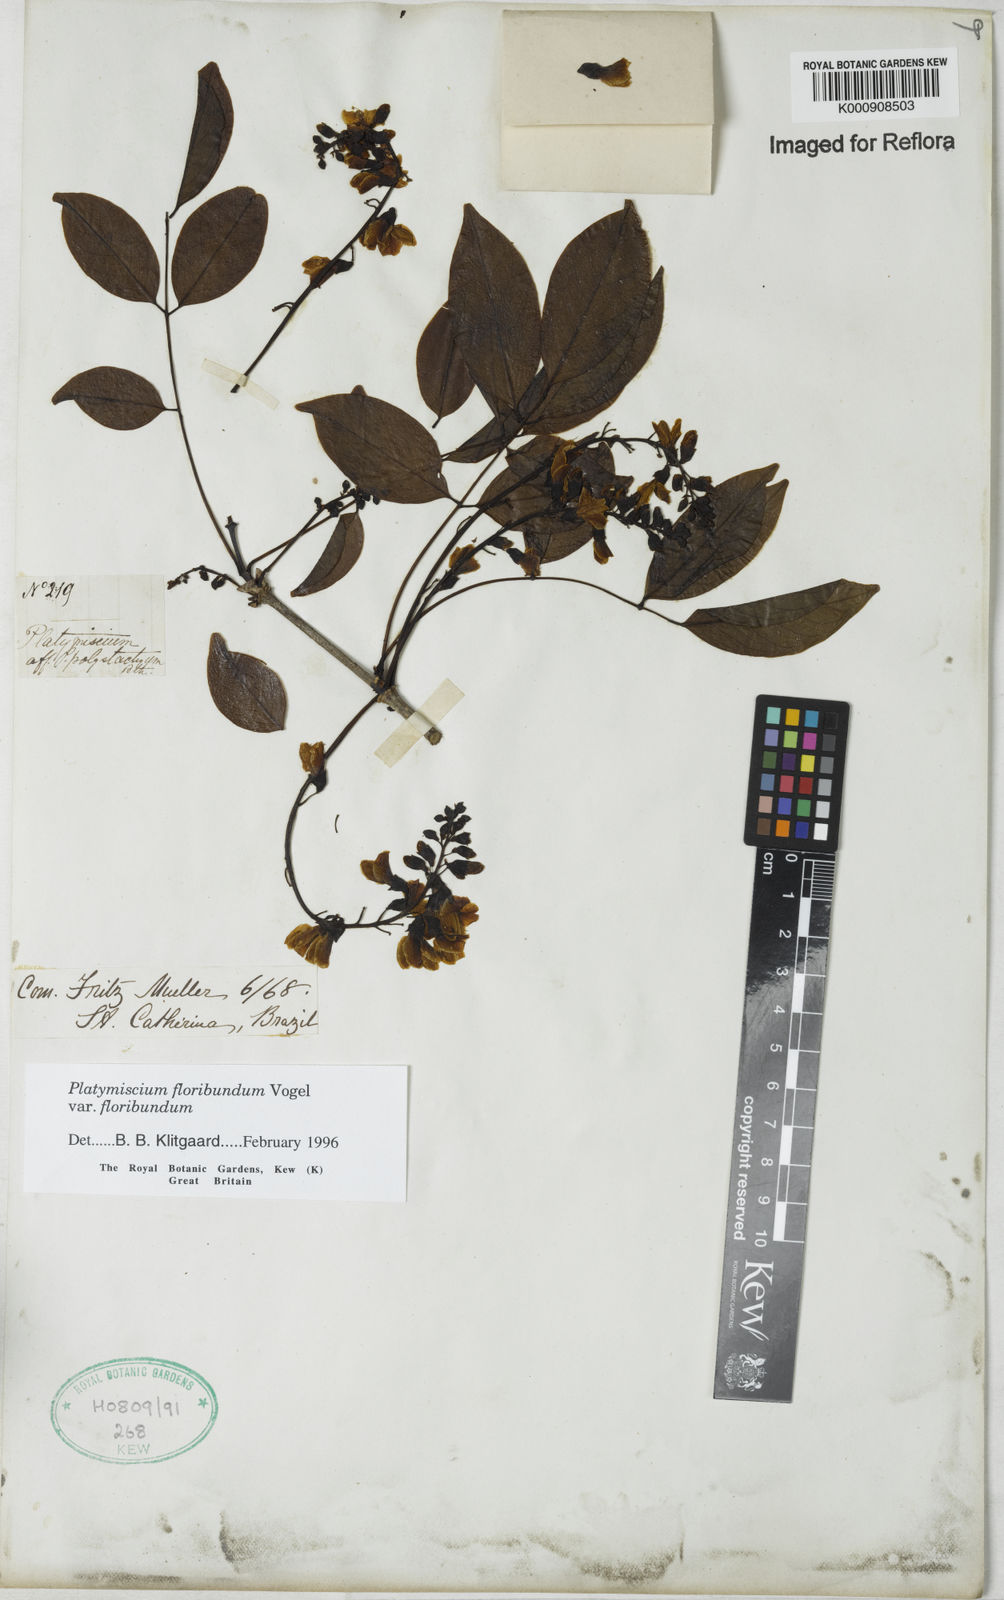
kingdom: Plantae
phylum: Tracheophyta
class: Magnoliopsida
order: Fabales
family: Fabaceae
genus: Platymiscium
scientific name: Platymiscium floribundum
